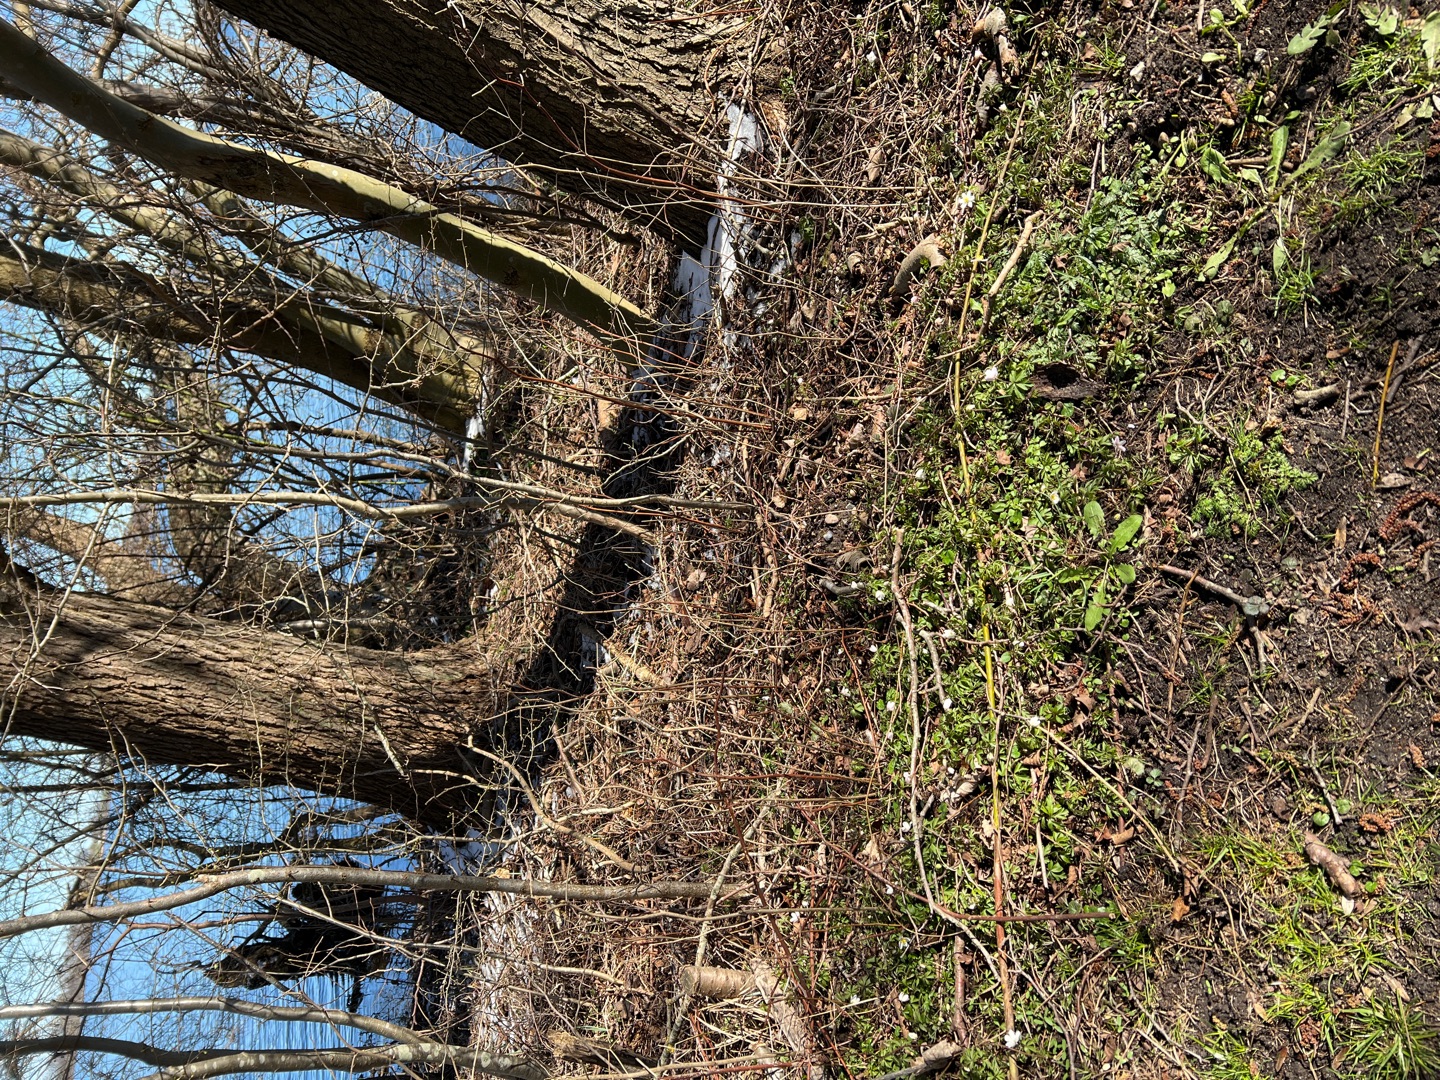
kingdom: Plantae
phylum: Tracheophyta
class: Magnoliopsida
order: Ranunculales
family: Ranunculaceae
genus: Anemone
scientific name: Anemone nemorosa
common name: Hvid anemone
